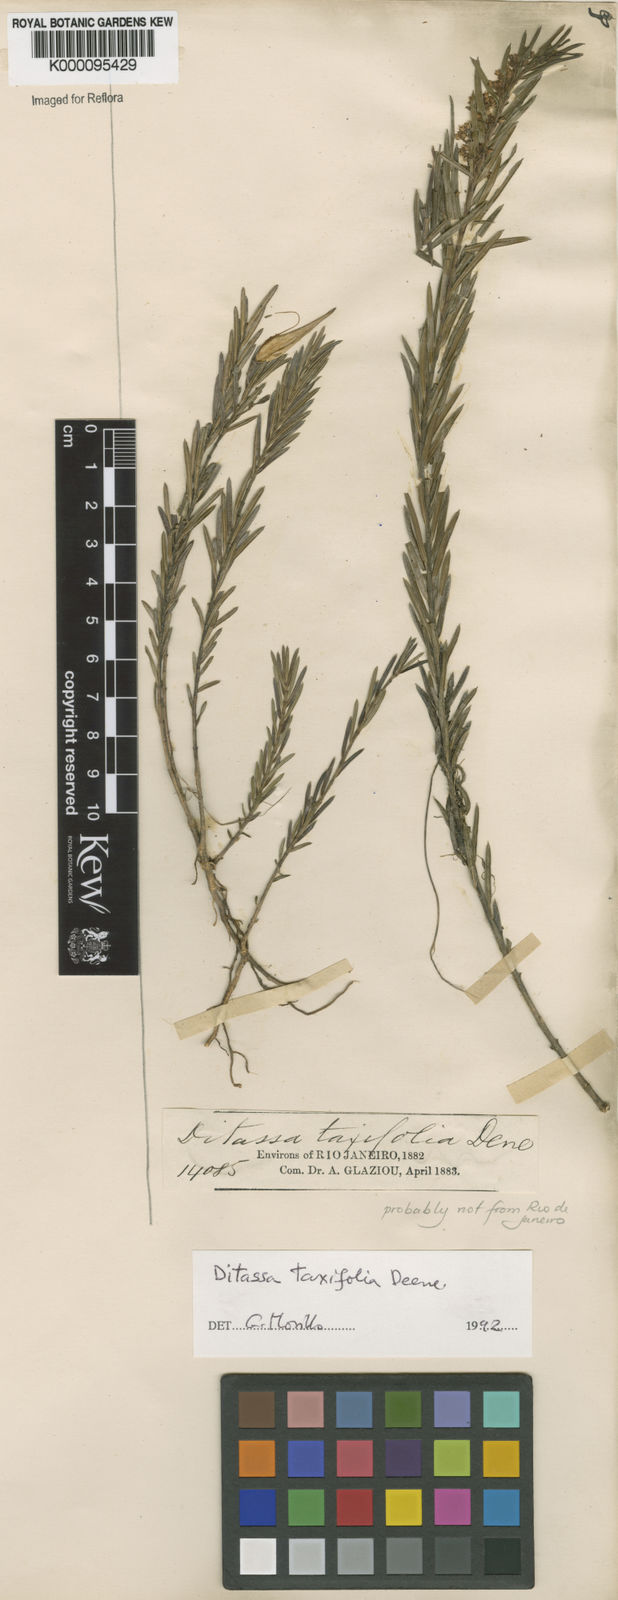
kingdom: Plantae
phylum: Tracheophyta
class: Magnoliopsida
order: Gentianales
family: Apocynaceae
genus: Ditassa
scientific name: Ditassa taxifolia
